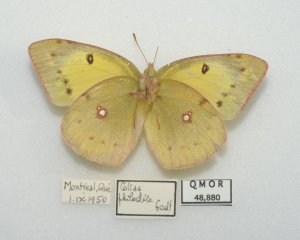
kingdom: Animalia
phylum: Arthropoda
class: Insecta
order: Lepidoptera
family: Pieridae
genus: Colias
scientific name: Colias philodice
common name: Clouded Sulphur
